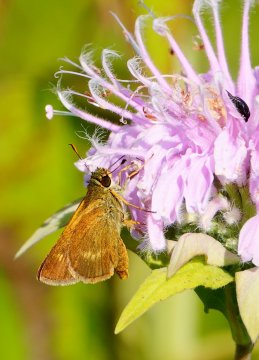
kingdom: Animalia
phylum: Arthropoda
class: Insecta
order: Lepidoptera
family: Hesperiidae
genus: Wallengrenia
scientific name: Wallengrenia otho
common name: Southern Broken-Dash
